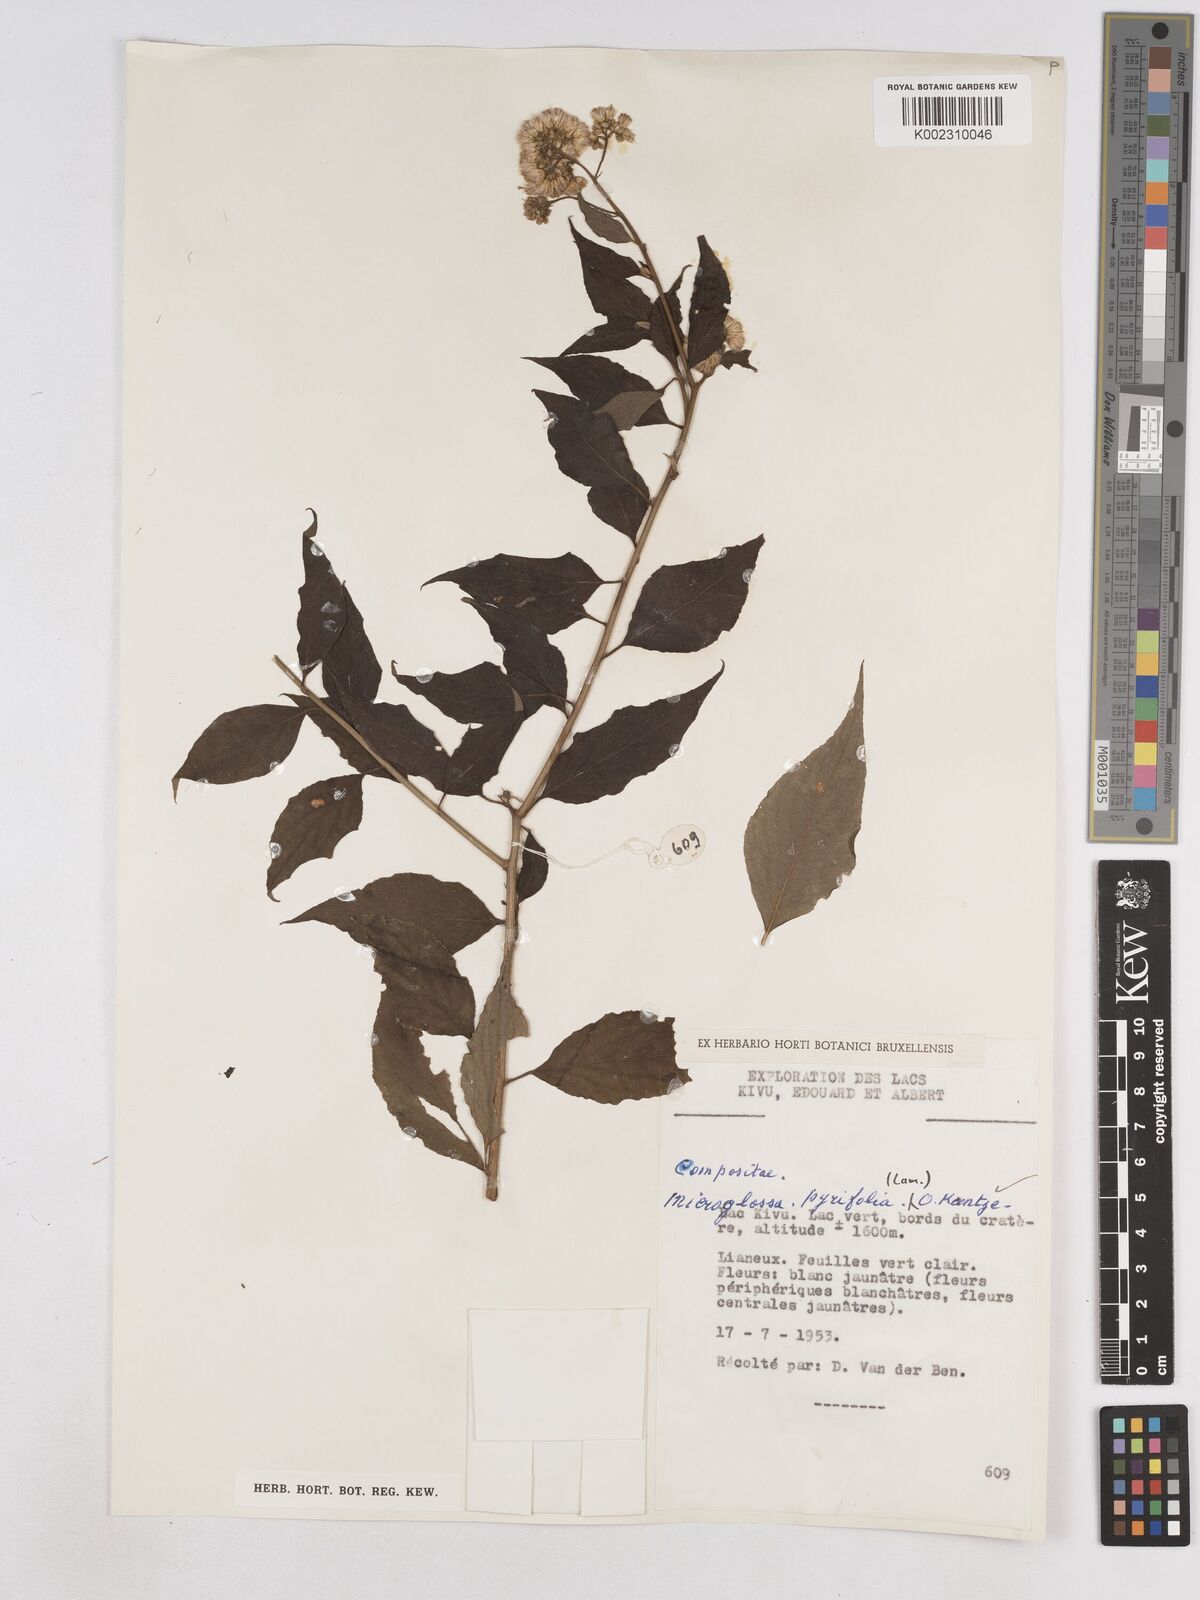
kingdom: Plantae
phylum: Tracheophyta
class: Magnoliopsida
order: Asterales
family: Asteraceae
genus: Microglossa
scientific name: Microglossa pyrifolia
